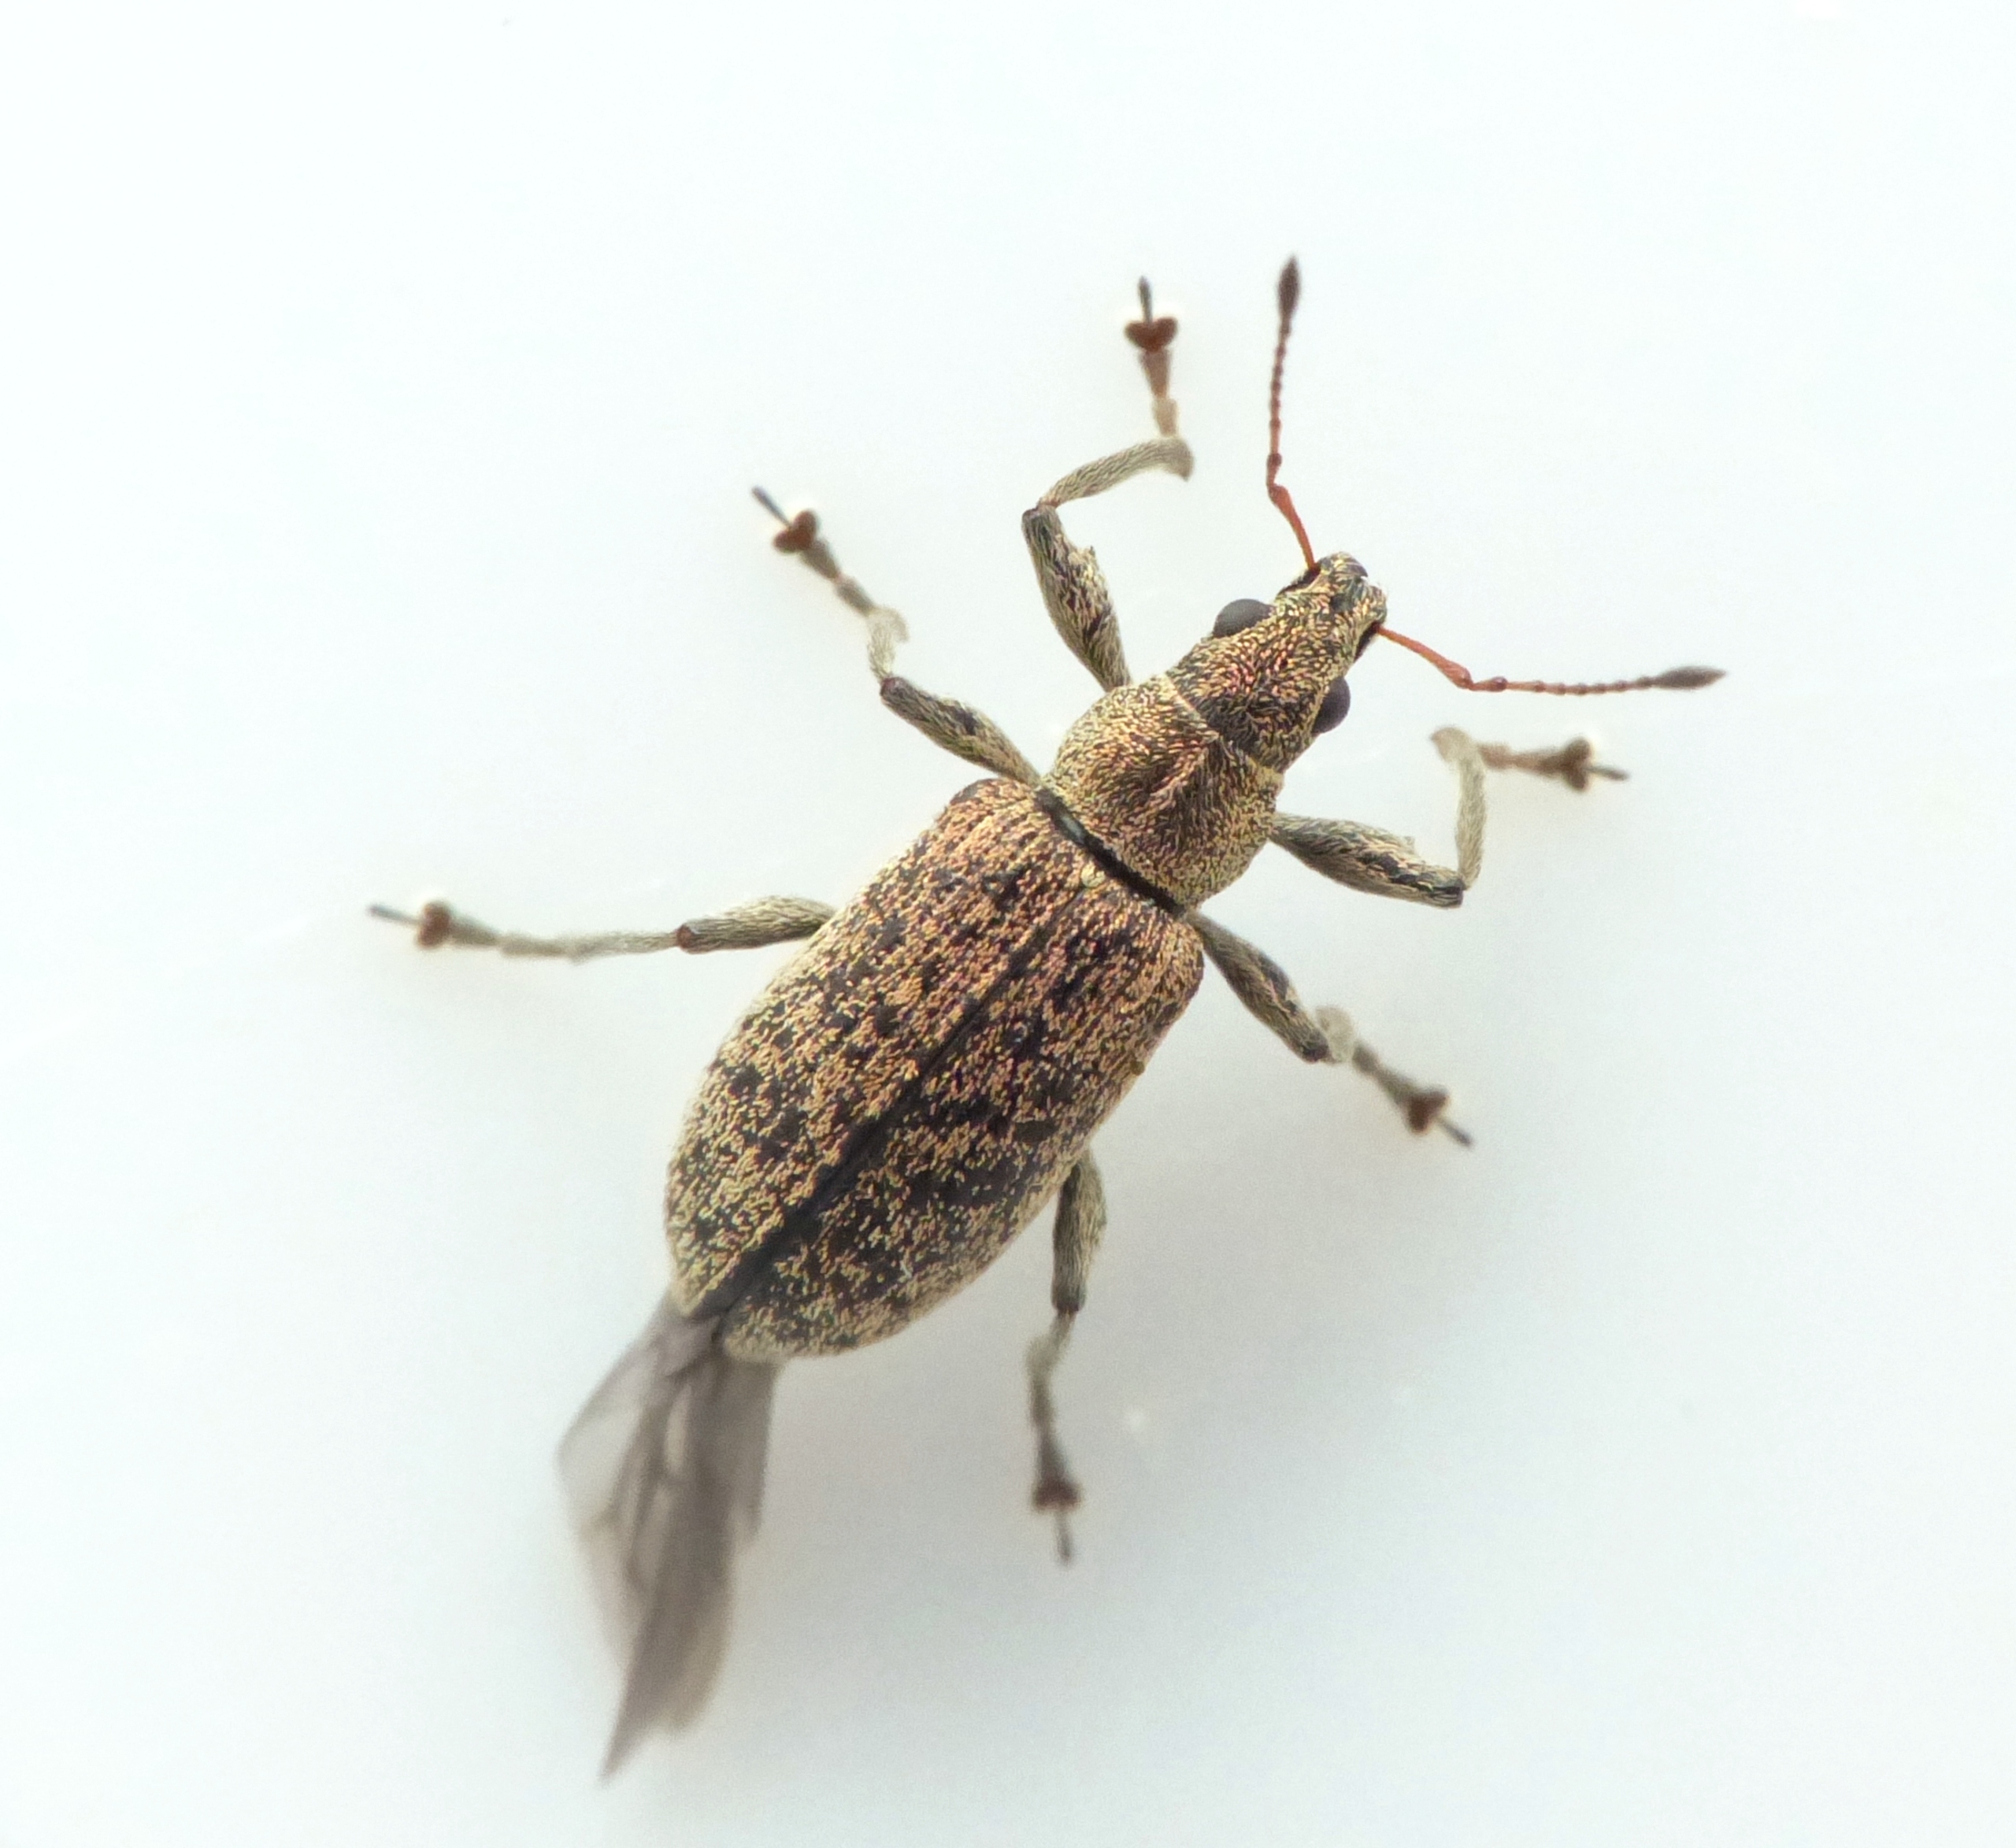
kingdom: Animalia
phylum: Arthropoda
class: Insecta
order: Coleoptera
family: Curculionidae
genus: Polydrusus
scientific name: Polydrusus cervinus
